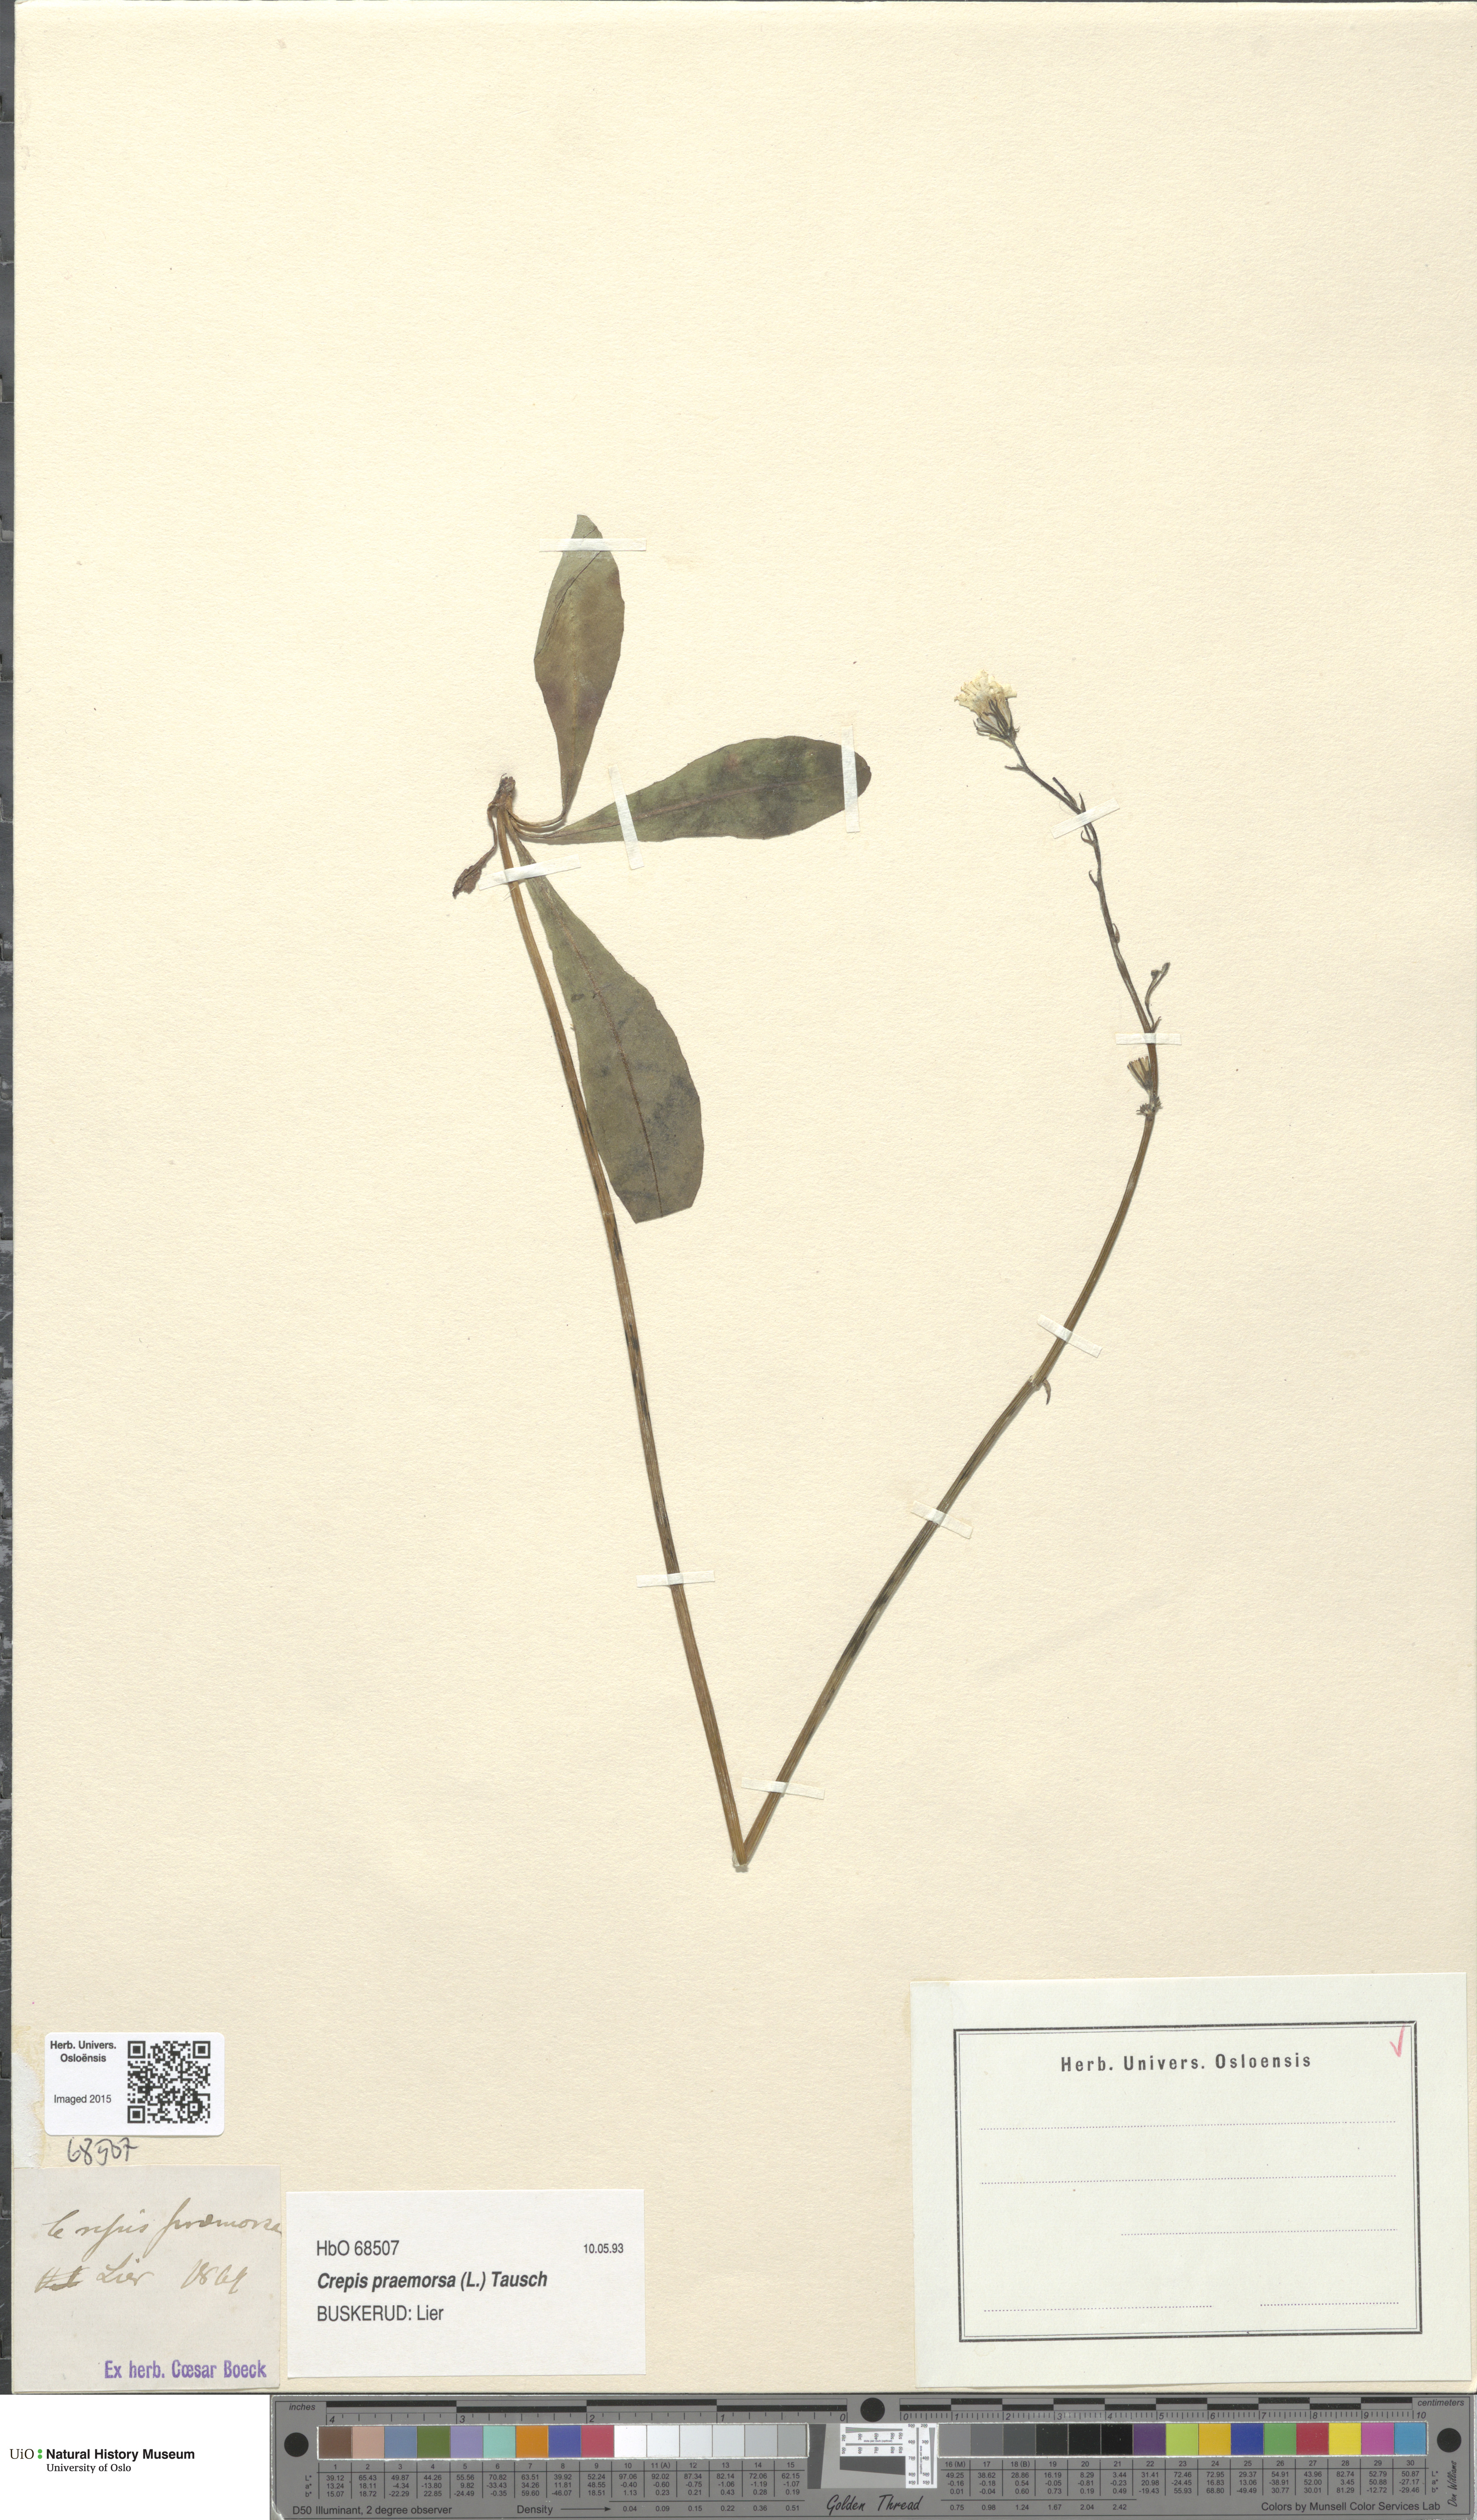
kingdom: Plantae
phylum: Tracheophyta
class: Magnoliopsida
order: Asterales
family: Asteraceae
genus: Crepis
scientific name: Crepis praemorsa
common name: Leafless hawk's-beard
